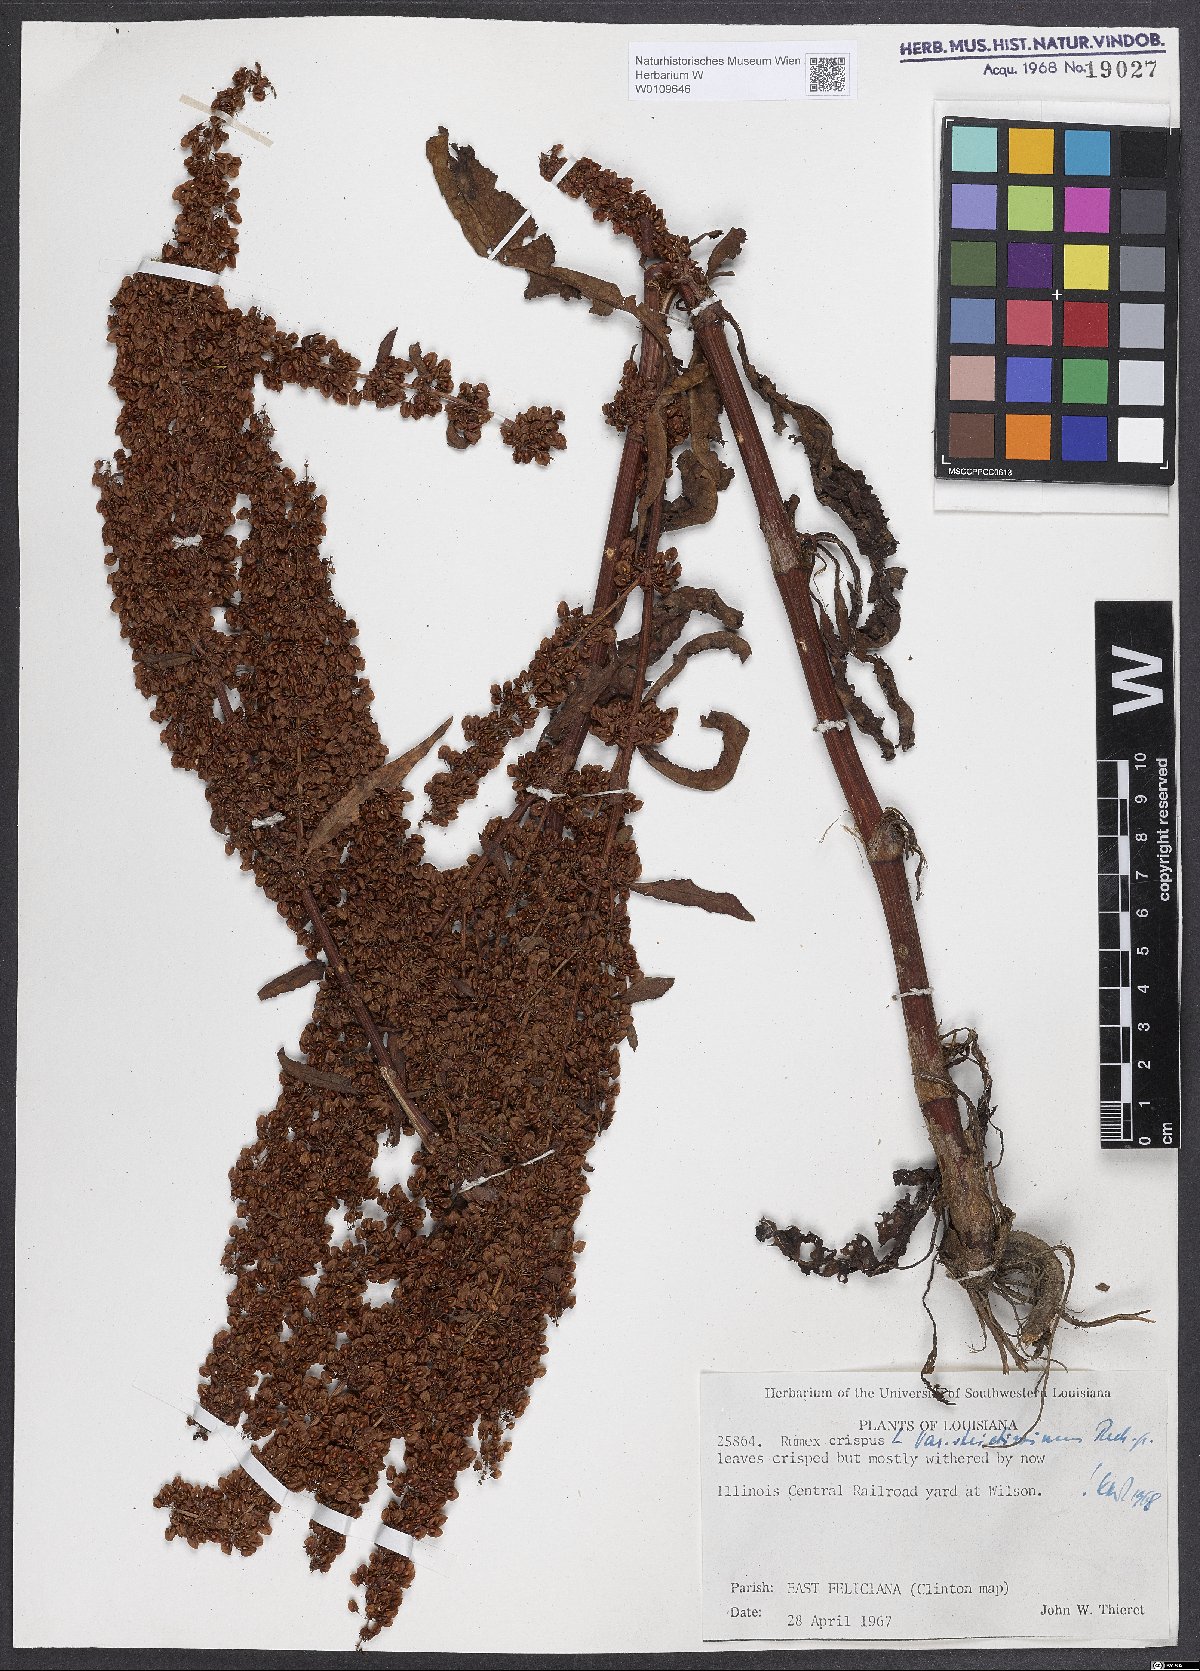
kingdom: Plantae
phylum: Tracheophyta
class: Magnoliopsida
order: Caryophyllales
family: Polygonaceae
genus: Rumex
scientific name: Rumex crispus
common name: Curled dock
